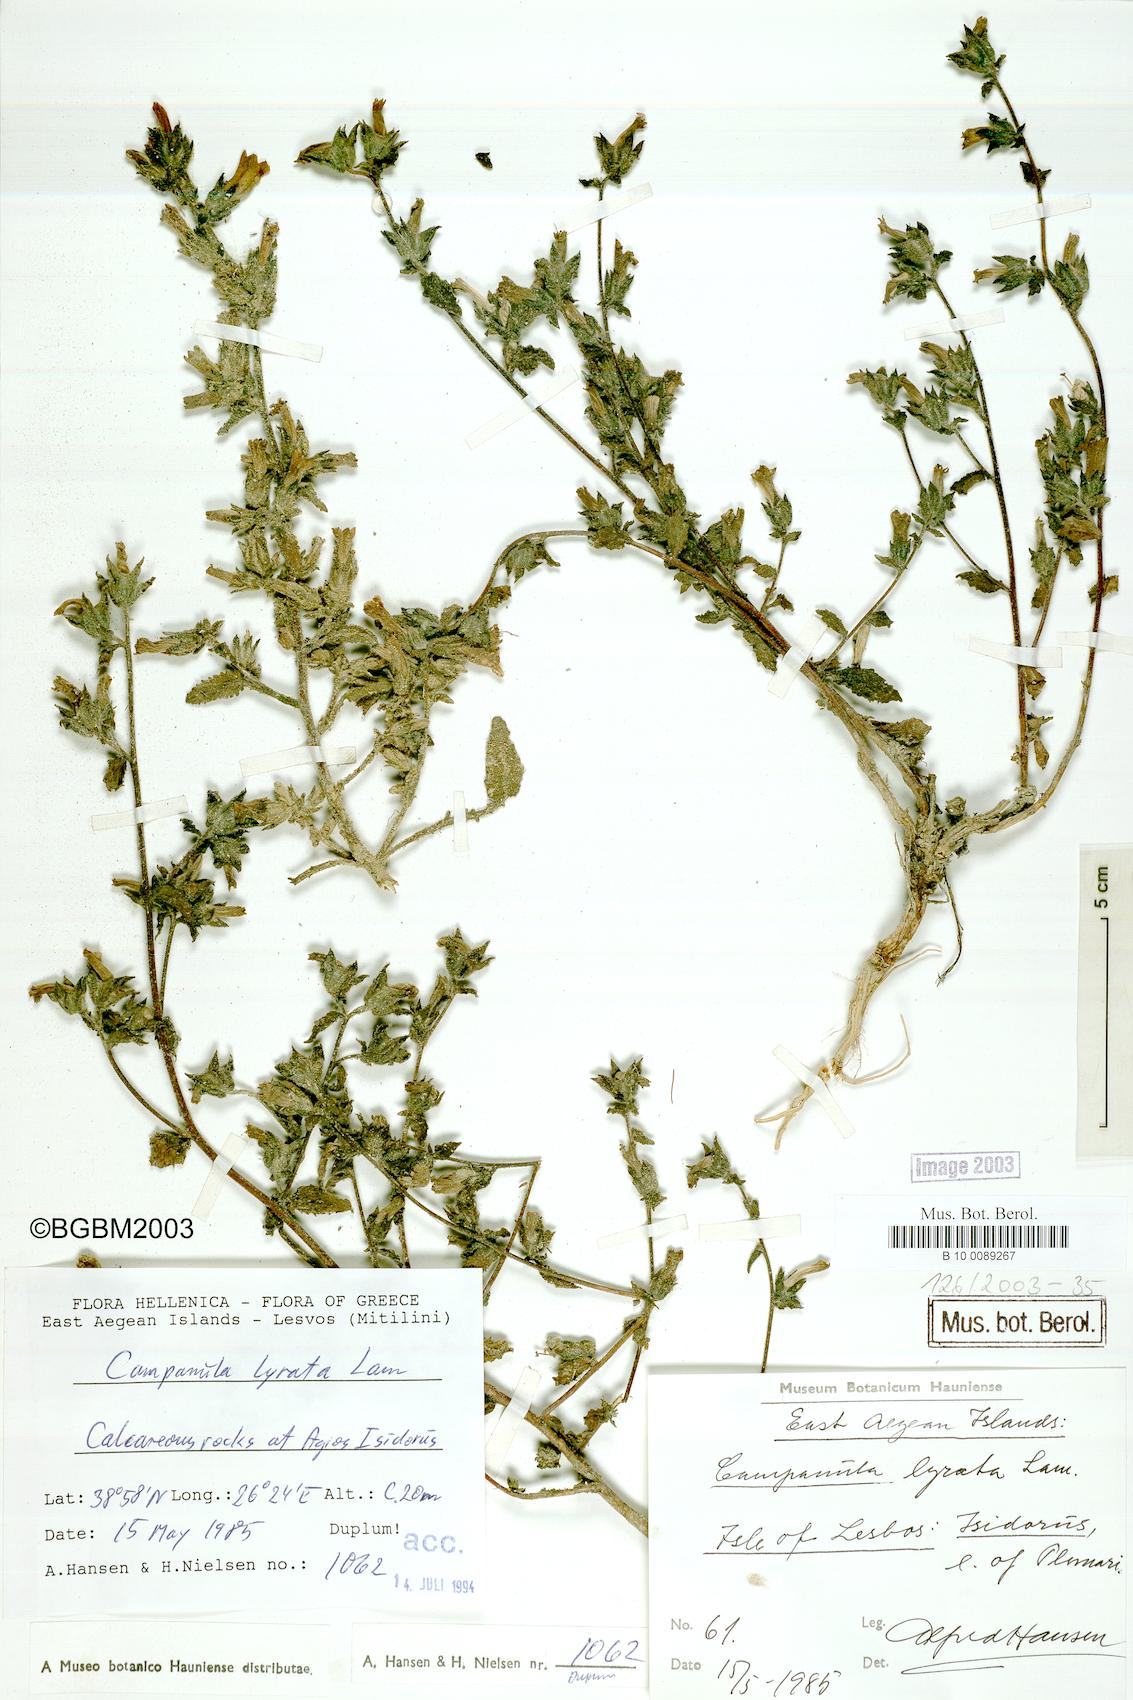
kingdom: Plantae
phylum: Tracheophyta
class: Magnoliopsida
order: Asterales
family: Campanulaceae
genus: Campanula
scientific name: Campanula lyrata
